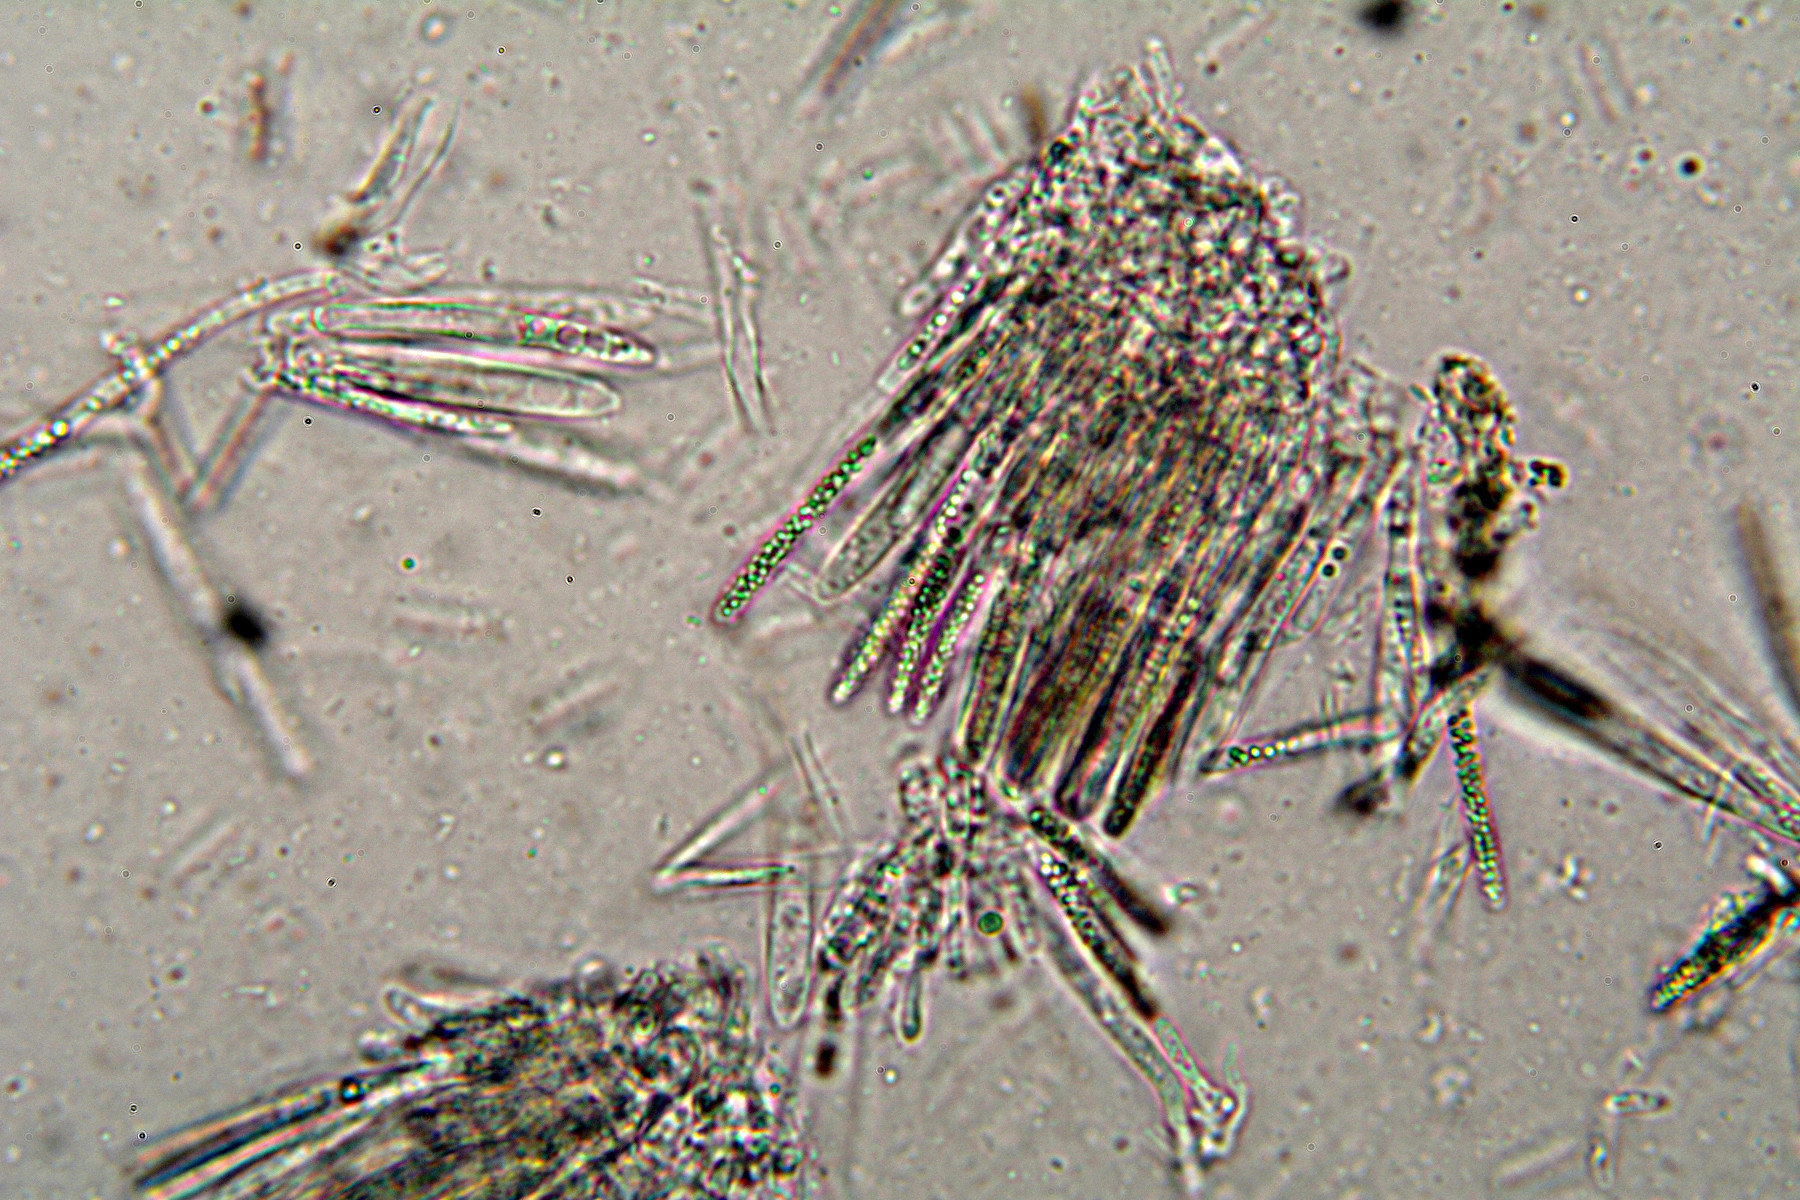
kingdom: Fungi
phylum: Ascomycota
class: Leotiomycetes
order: Helotiales
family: Helotiaceae
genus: Cyathicula
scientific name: Cyathicula cyathoidea
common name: pokal-stilkskive
